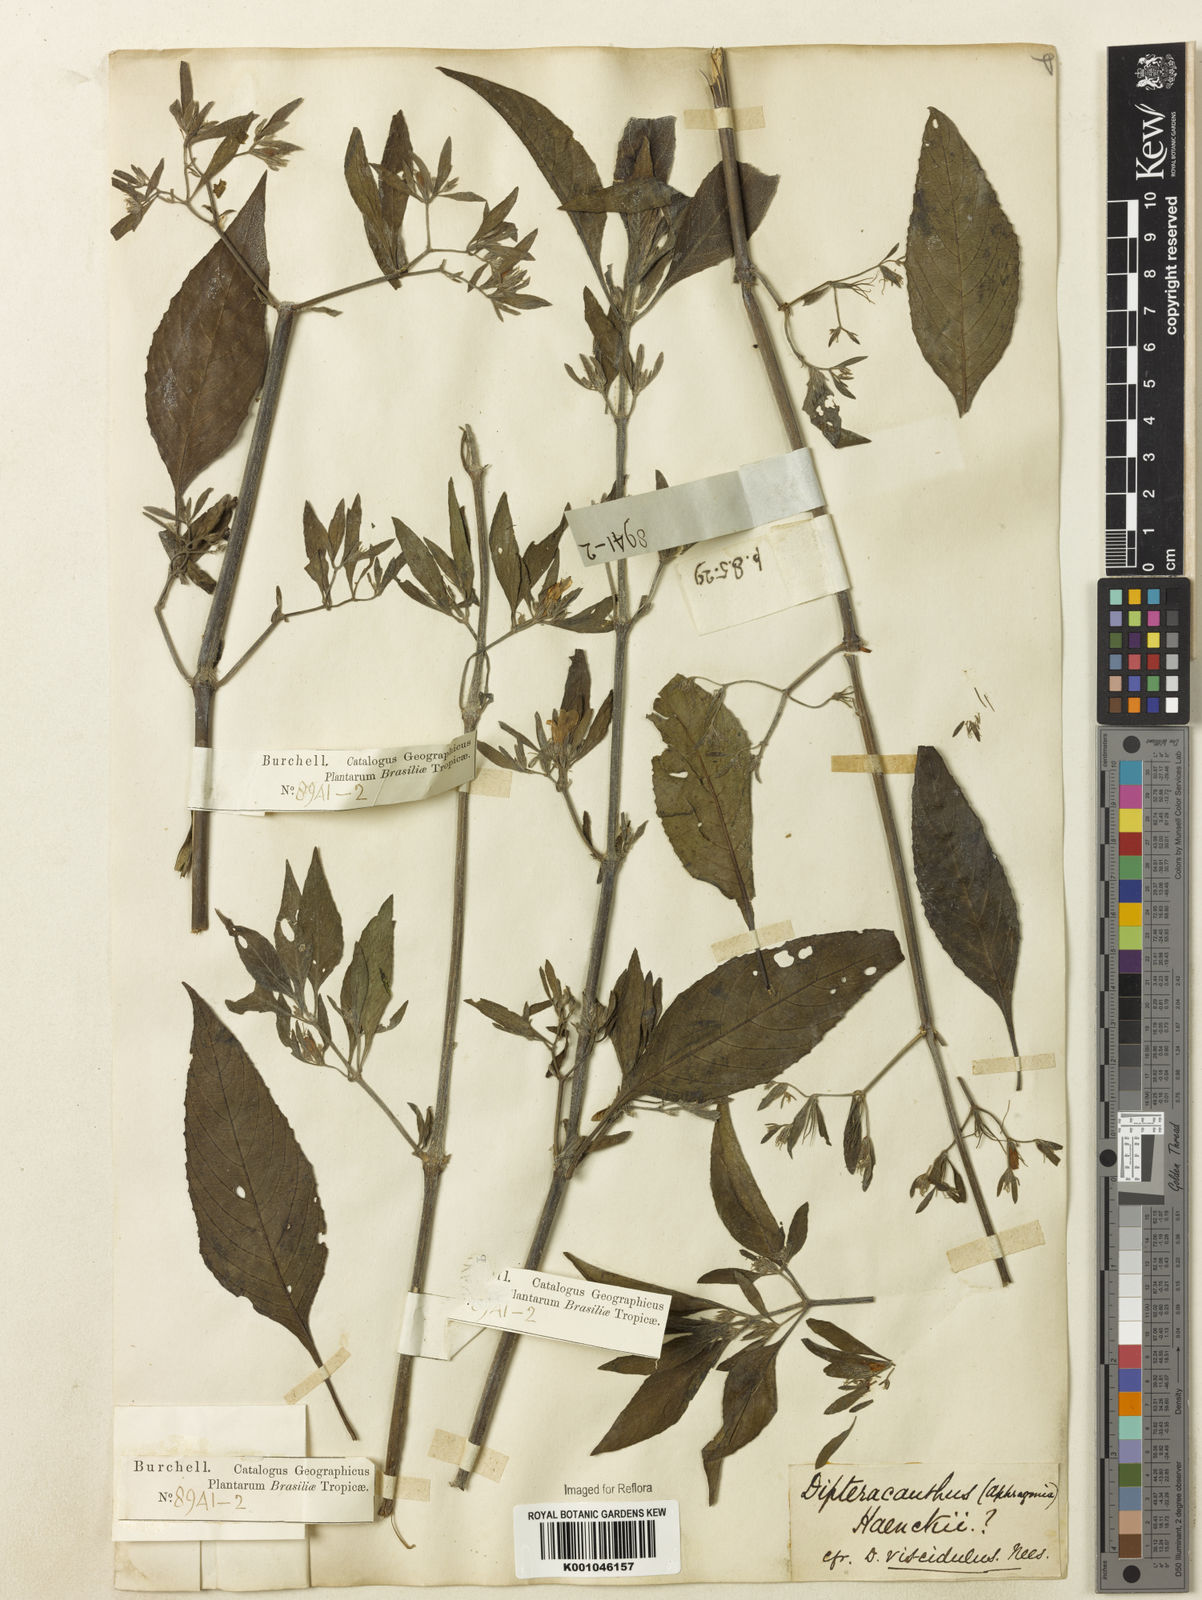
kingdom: Plantae
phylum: Tracheophyta
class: Magnoliopsida
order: Lamiales
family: Acanthaceae
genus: Ruellia
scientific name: Ruellia
